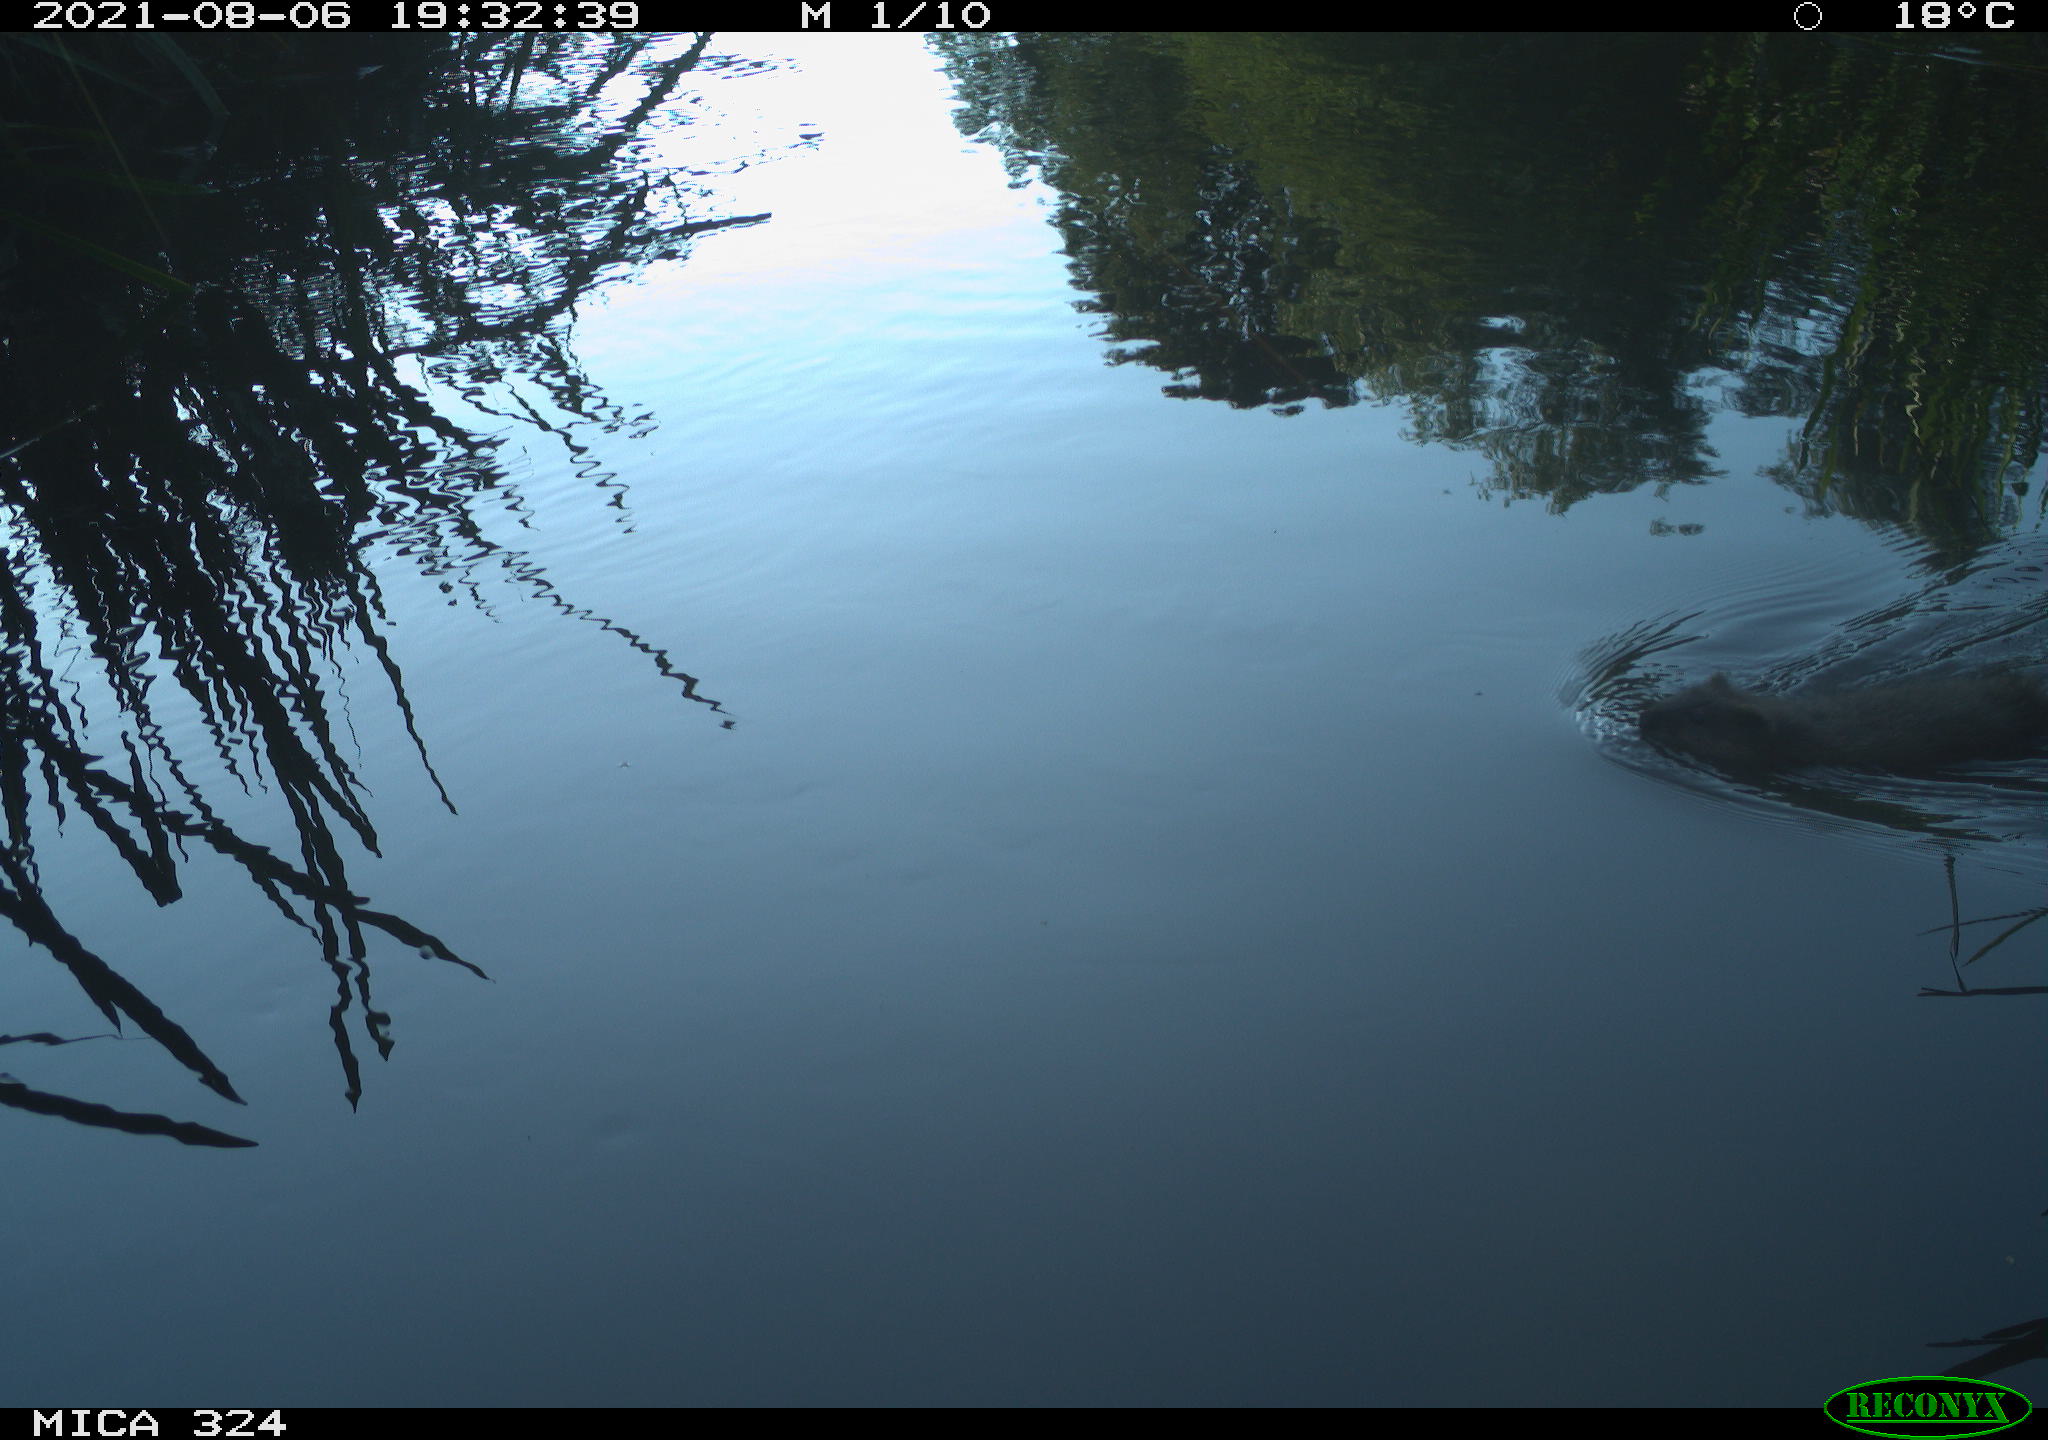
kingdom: Animalia
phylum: Chordata
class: Mammalia
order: Rodentia
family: Cricetidae
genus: Ondatra
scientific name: Ondatra zibethicus
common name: Muskrat
